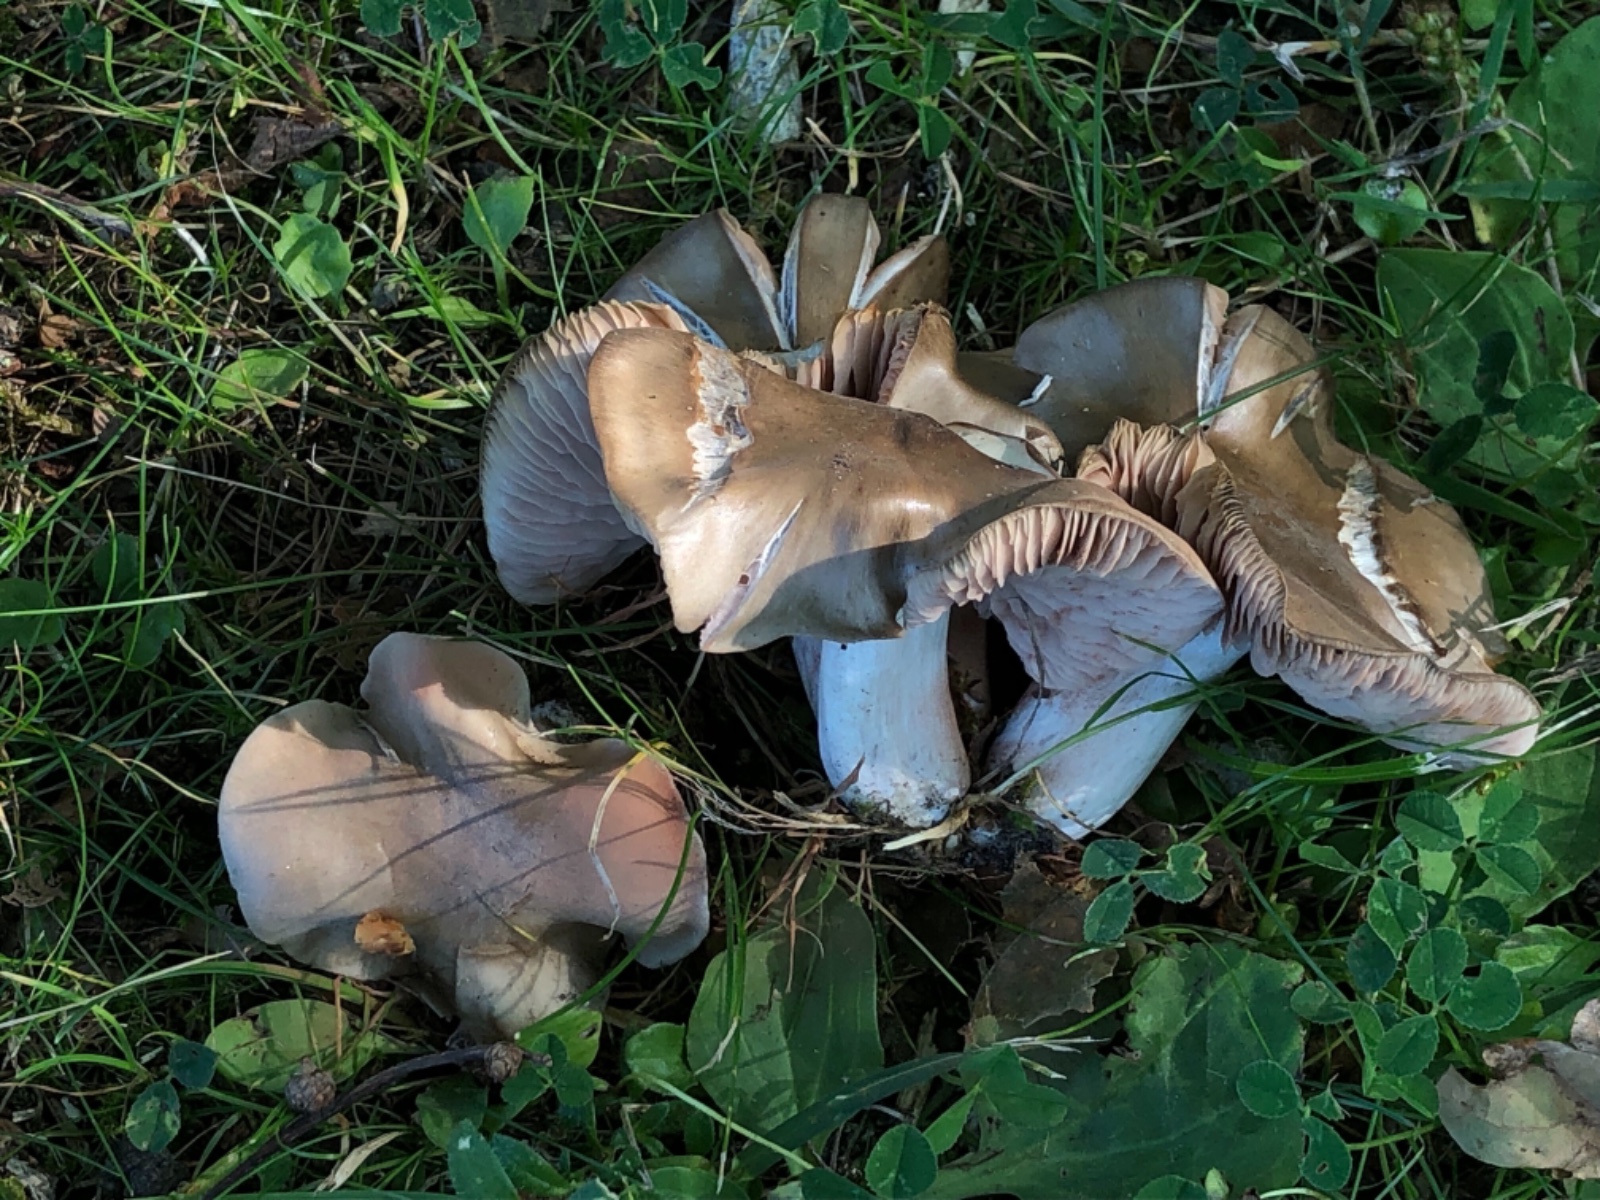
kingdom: Fungi
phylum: Basidiomycota
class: Agaricomycetes
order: Agaricales
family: Entolomataceae
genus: Entoloma
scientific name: Entoloma lividoalbum
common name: lysstokket rødblad
